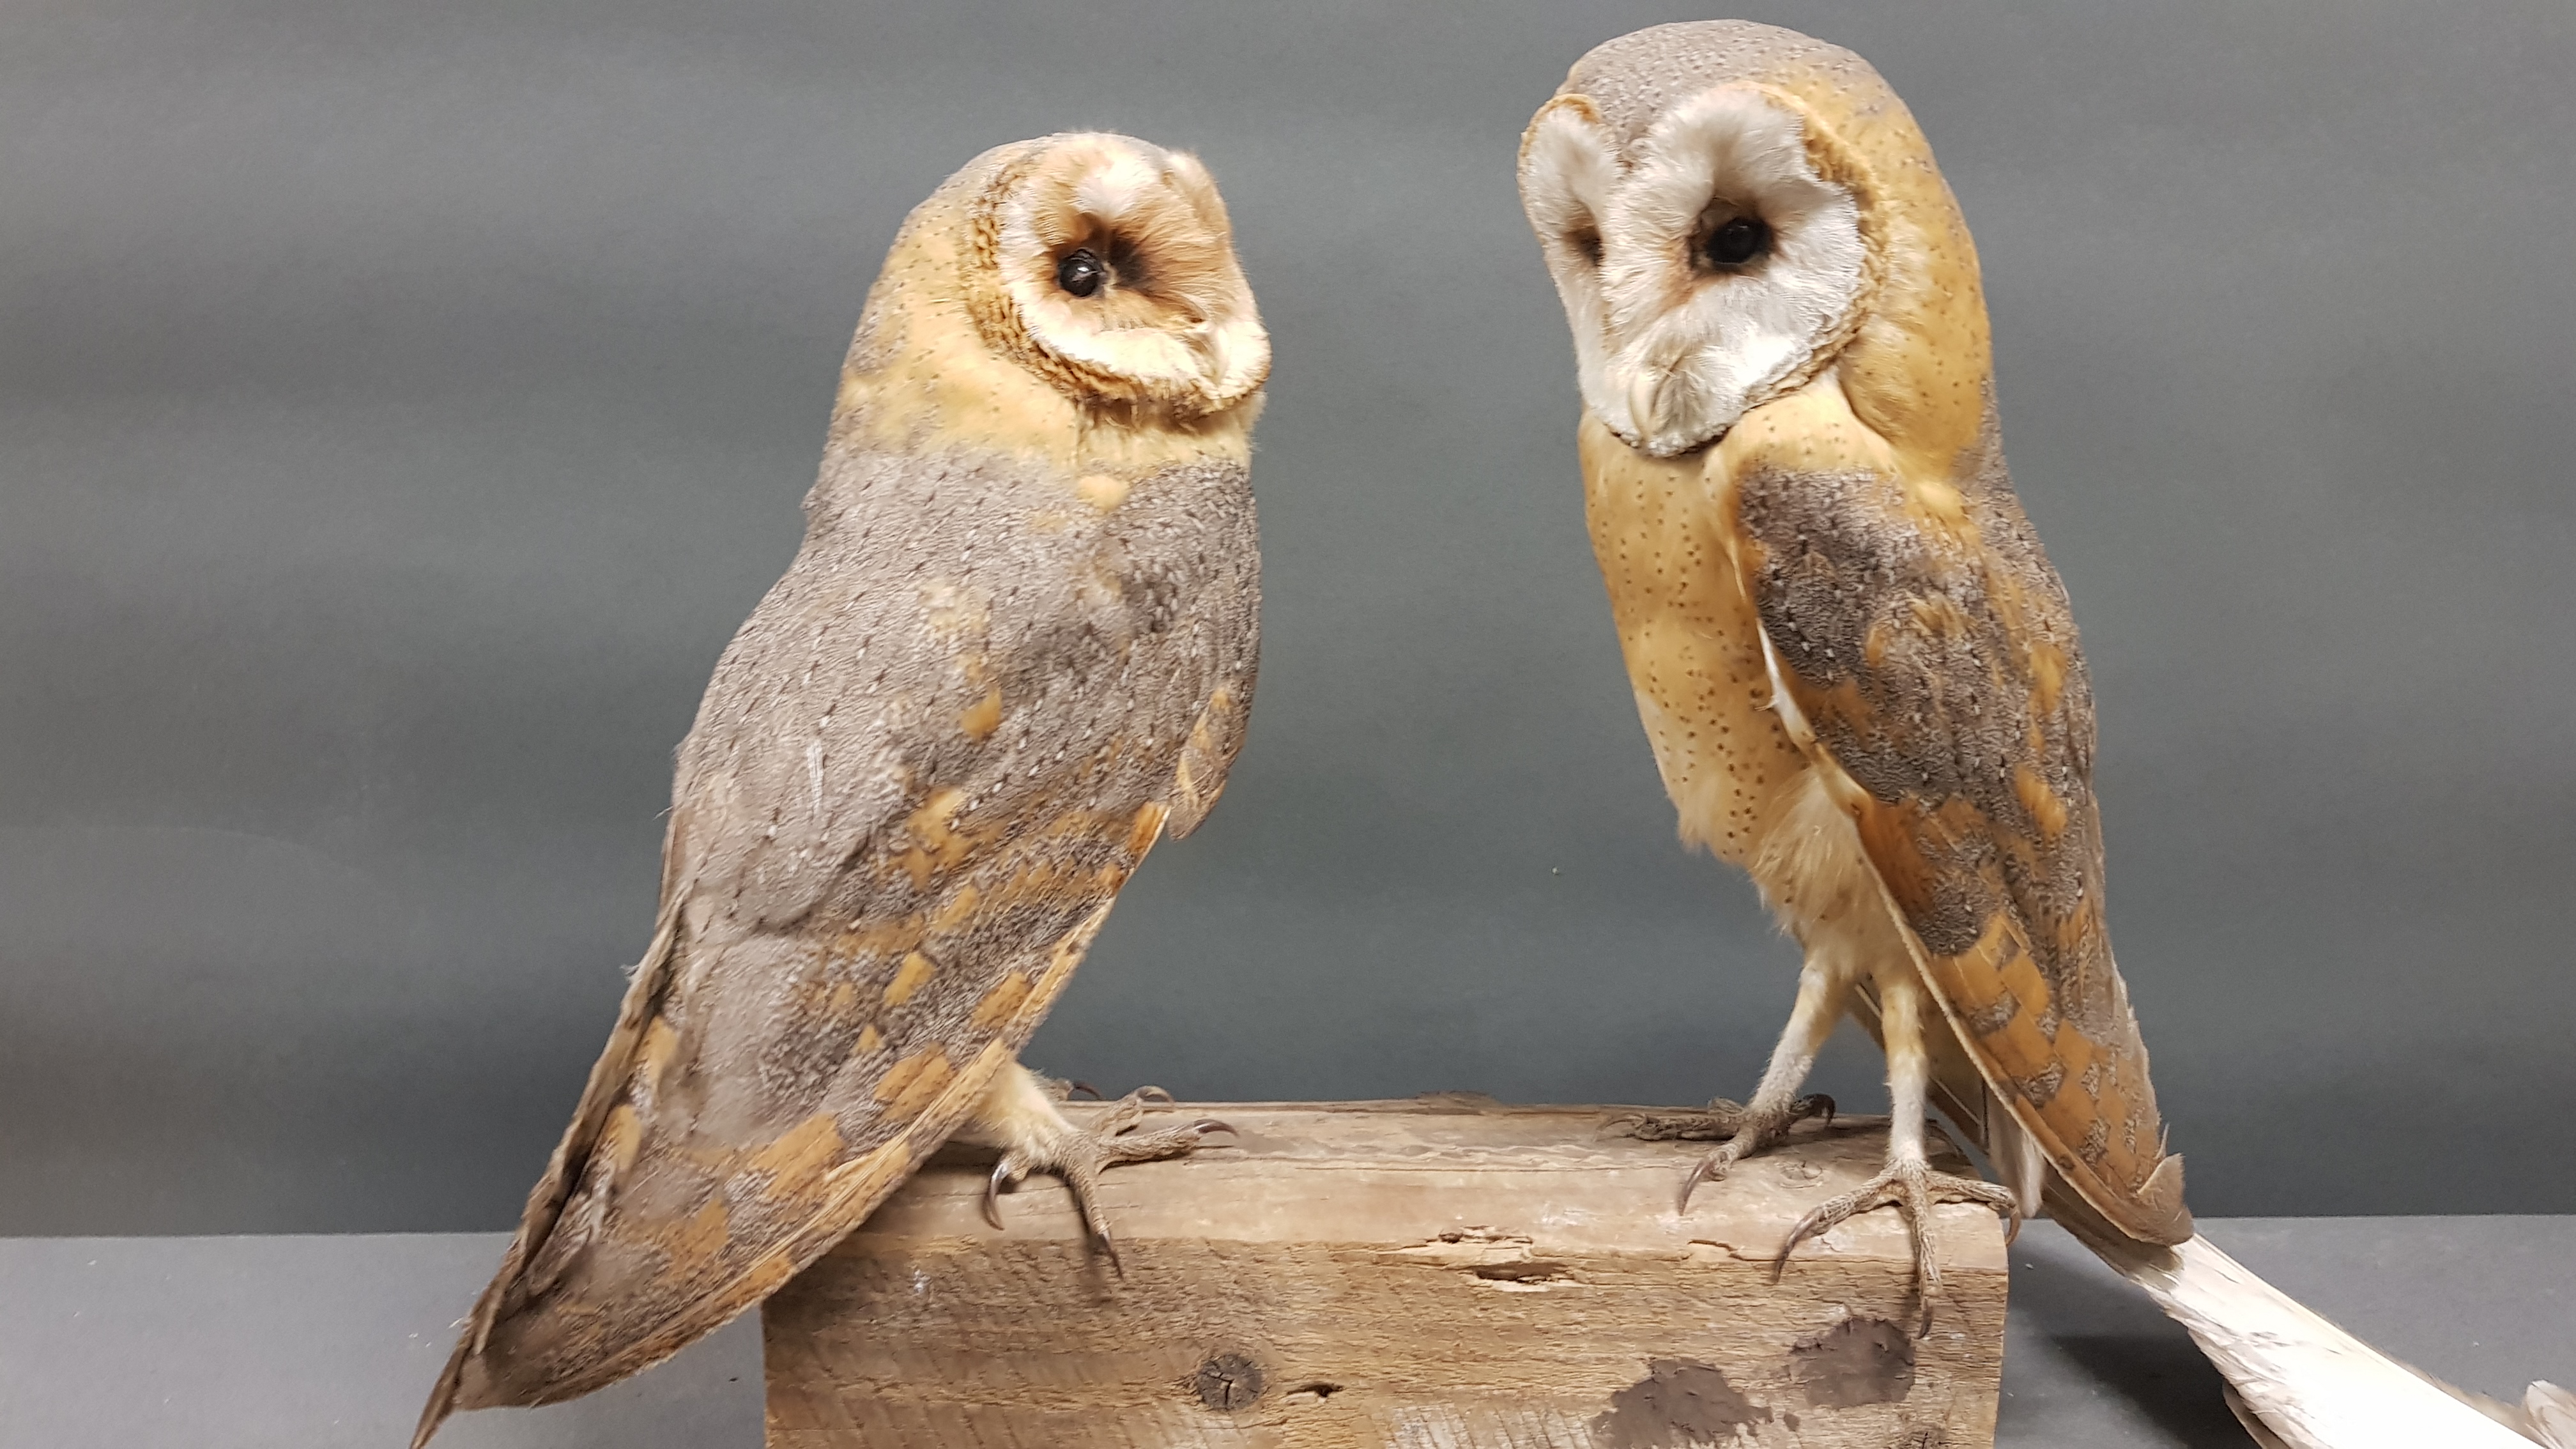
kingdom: Animalia
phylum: Chordata
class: Aves
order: Strigiformes
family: Tytonidae
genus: Tyto
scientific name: Tyto alba
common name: Barn owl
